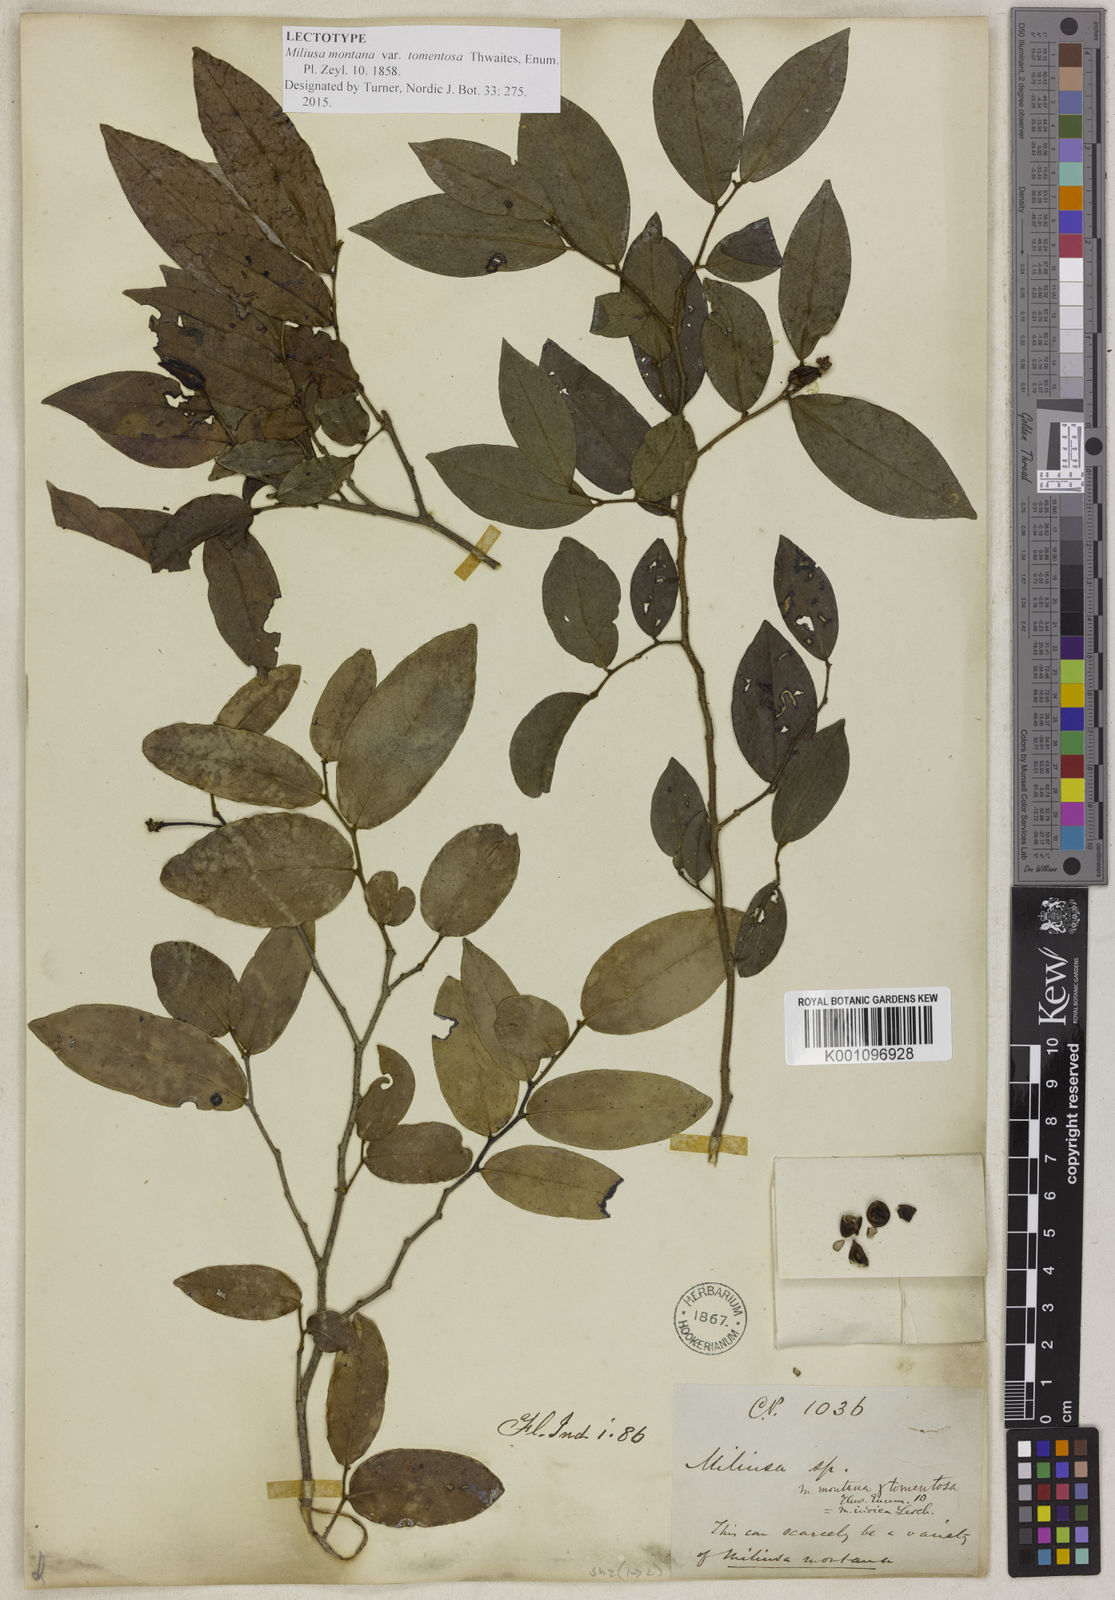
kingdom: Plantae
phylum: Tracheophyta
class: Magnoliopsida
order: Magnoliales
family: Annonaceae
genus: Miliusa
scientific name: Miliusa indica
